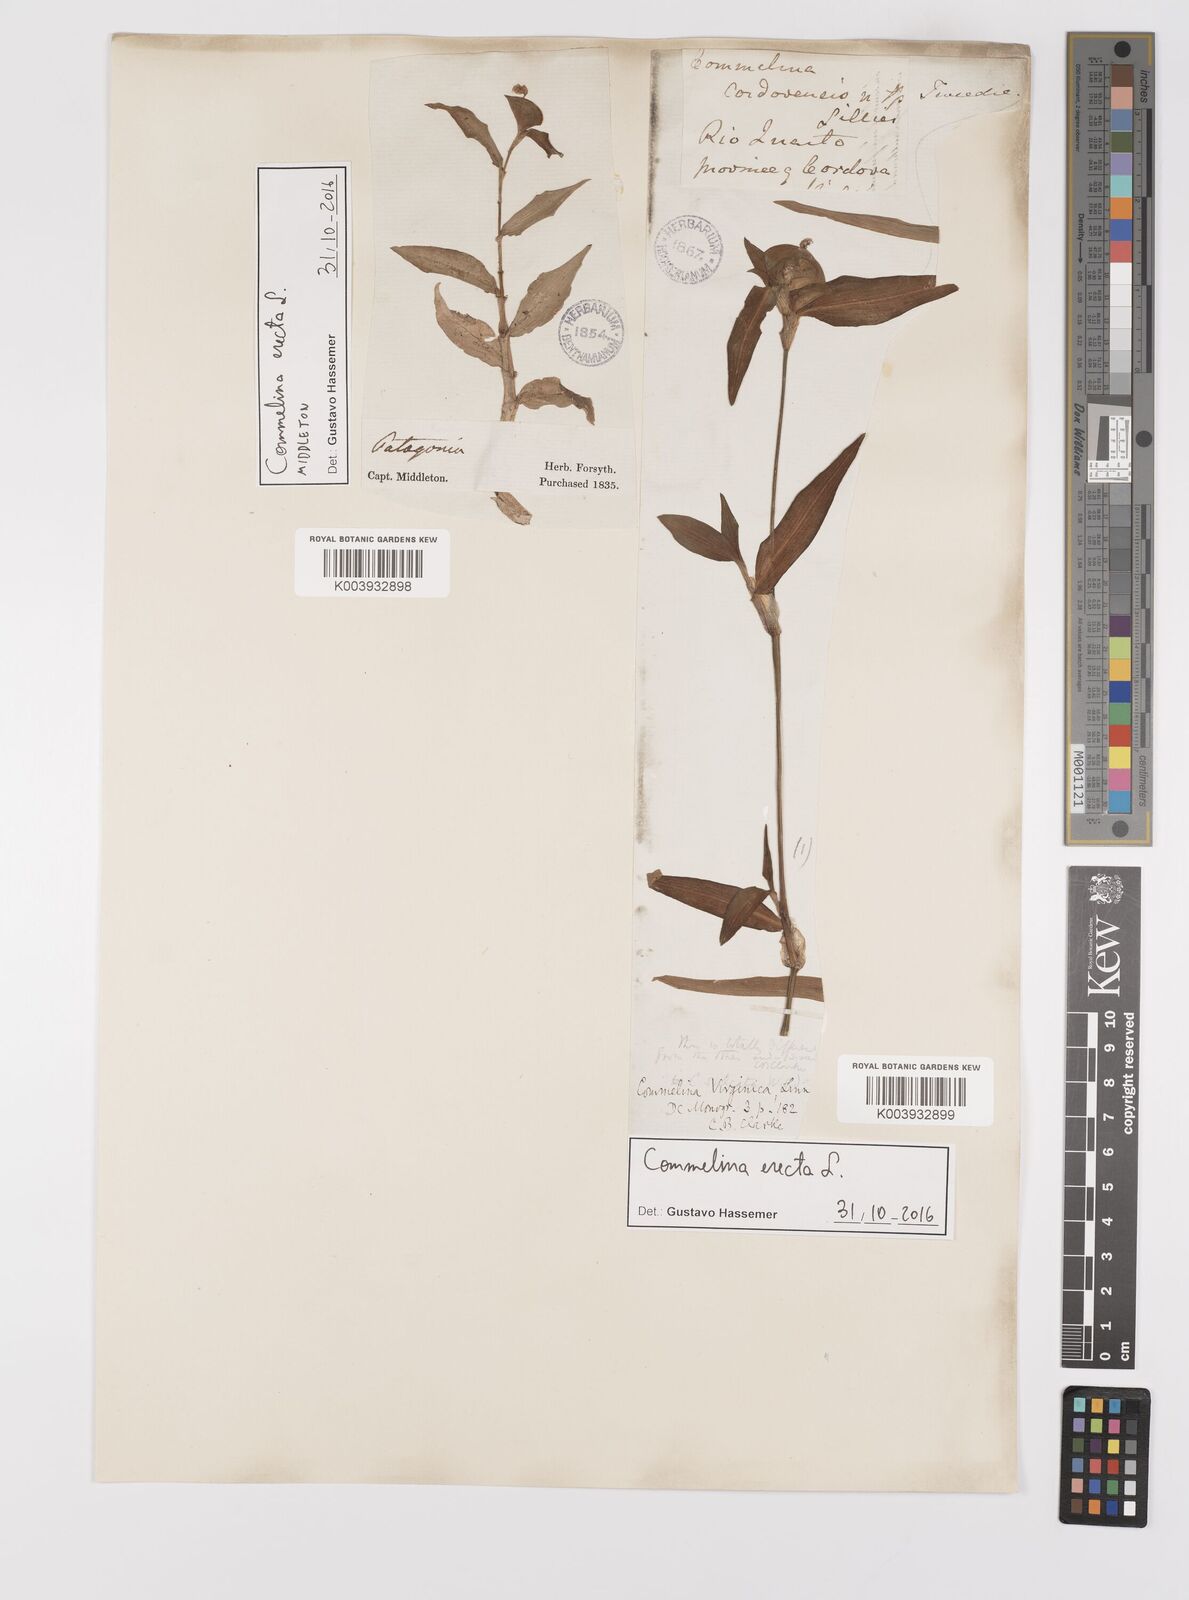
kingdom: Plantae
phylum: Tracheophyta
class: Liliopsida
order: Commelinales
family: Commelinaceae
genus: Commelina
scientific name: Commelina erecta
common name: Blousel blommetjie
